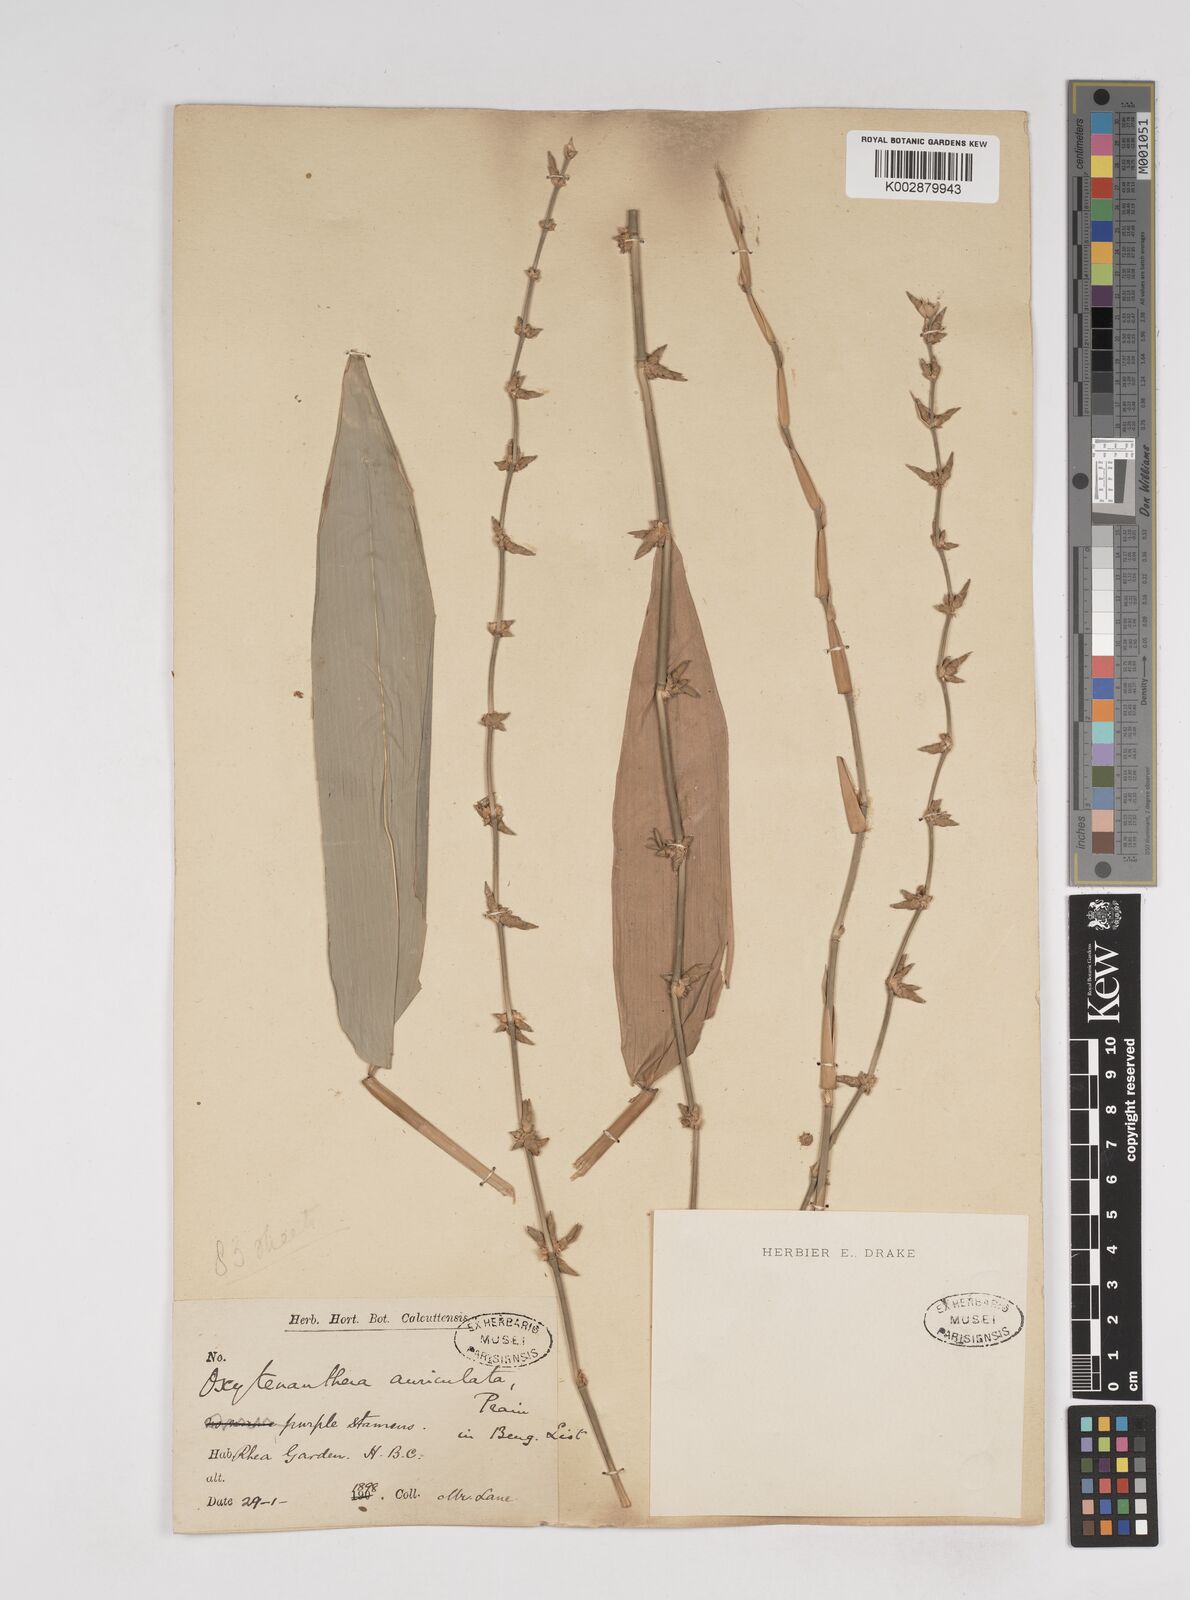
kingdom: Plantae
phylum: Tracheophyta
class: Liliopsida
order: Poales
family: Poaceae
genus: Gigantochloa
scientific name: Gigantochloa nigrociliata
